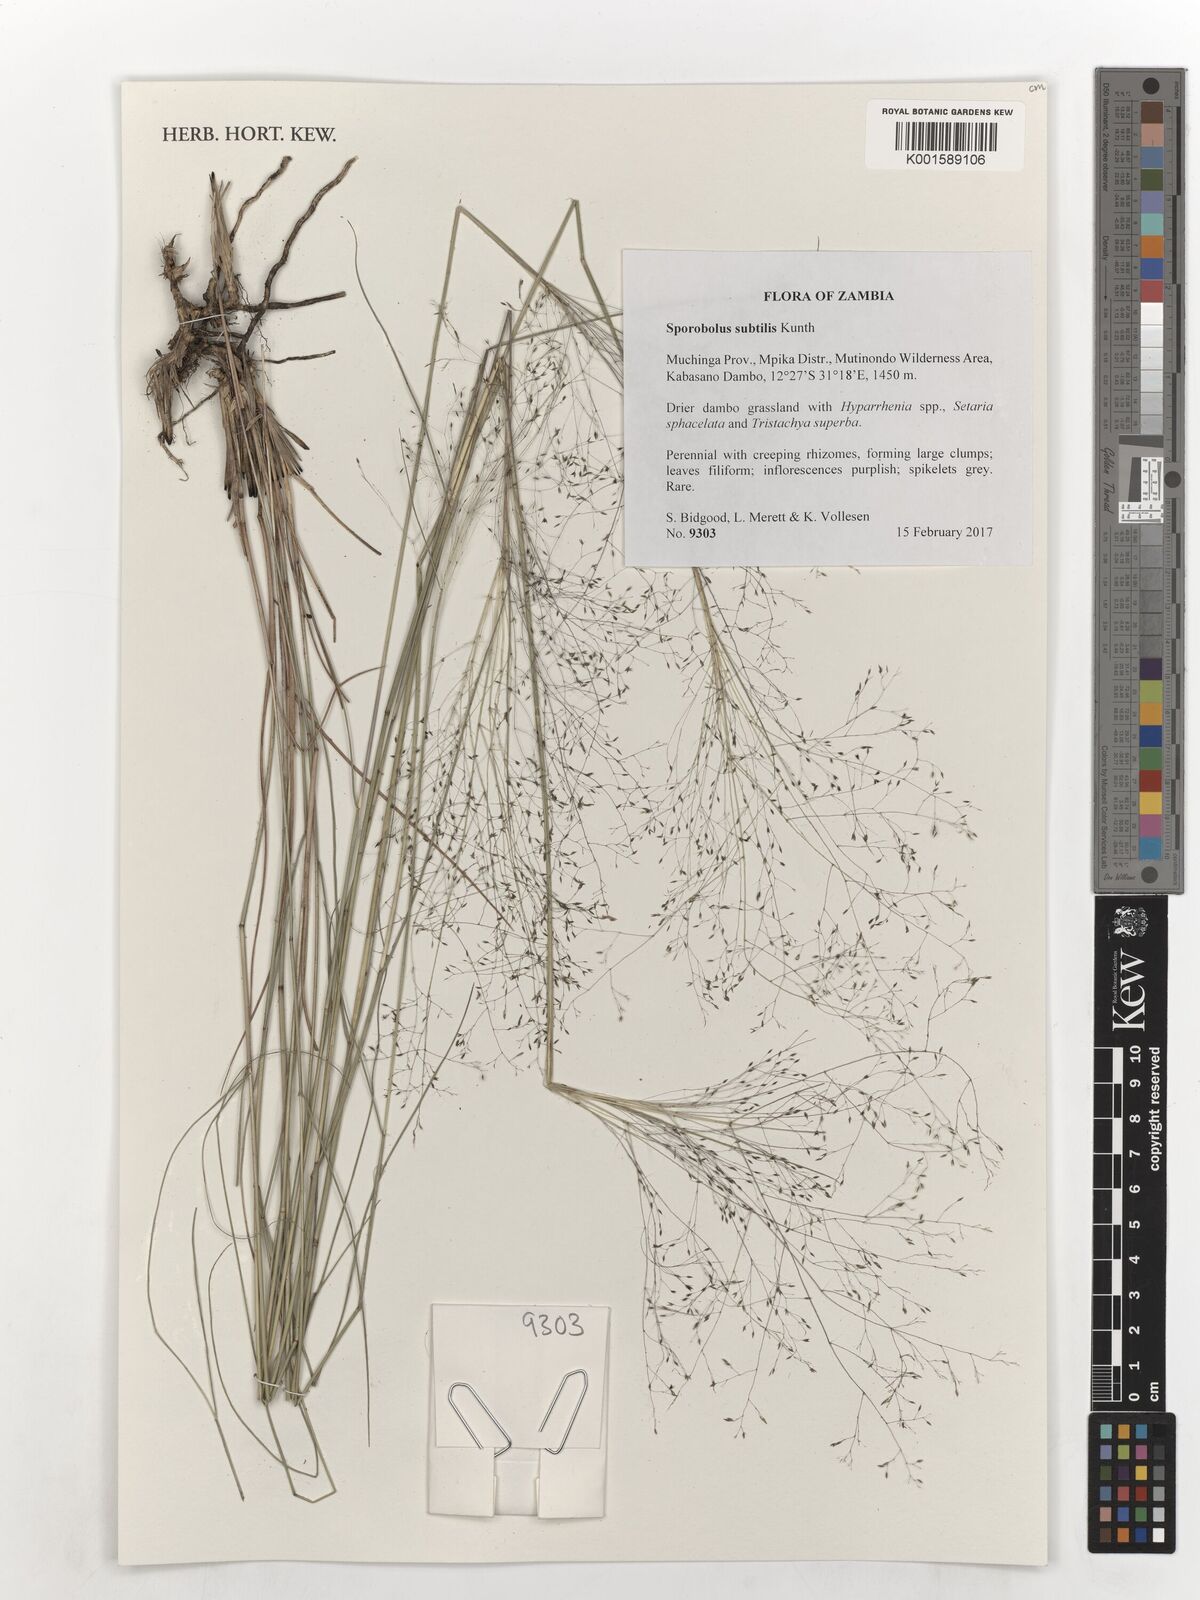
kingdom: Plantae
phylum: Tracheophyta
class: Liliopsida
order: Poales
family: Poaceae
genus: Sporobolus
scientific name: Sporobolus subtilis
